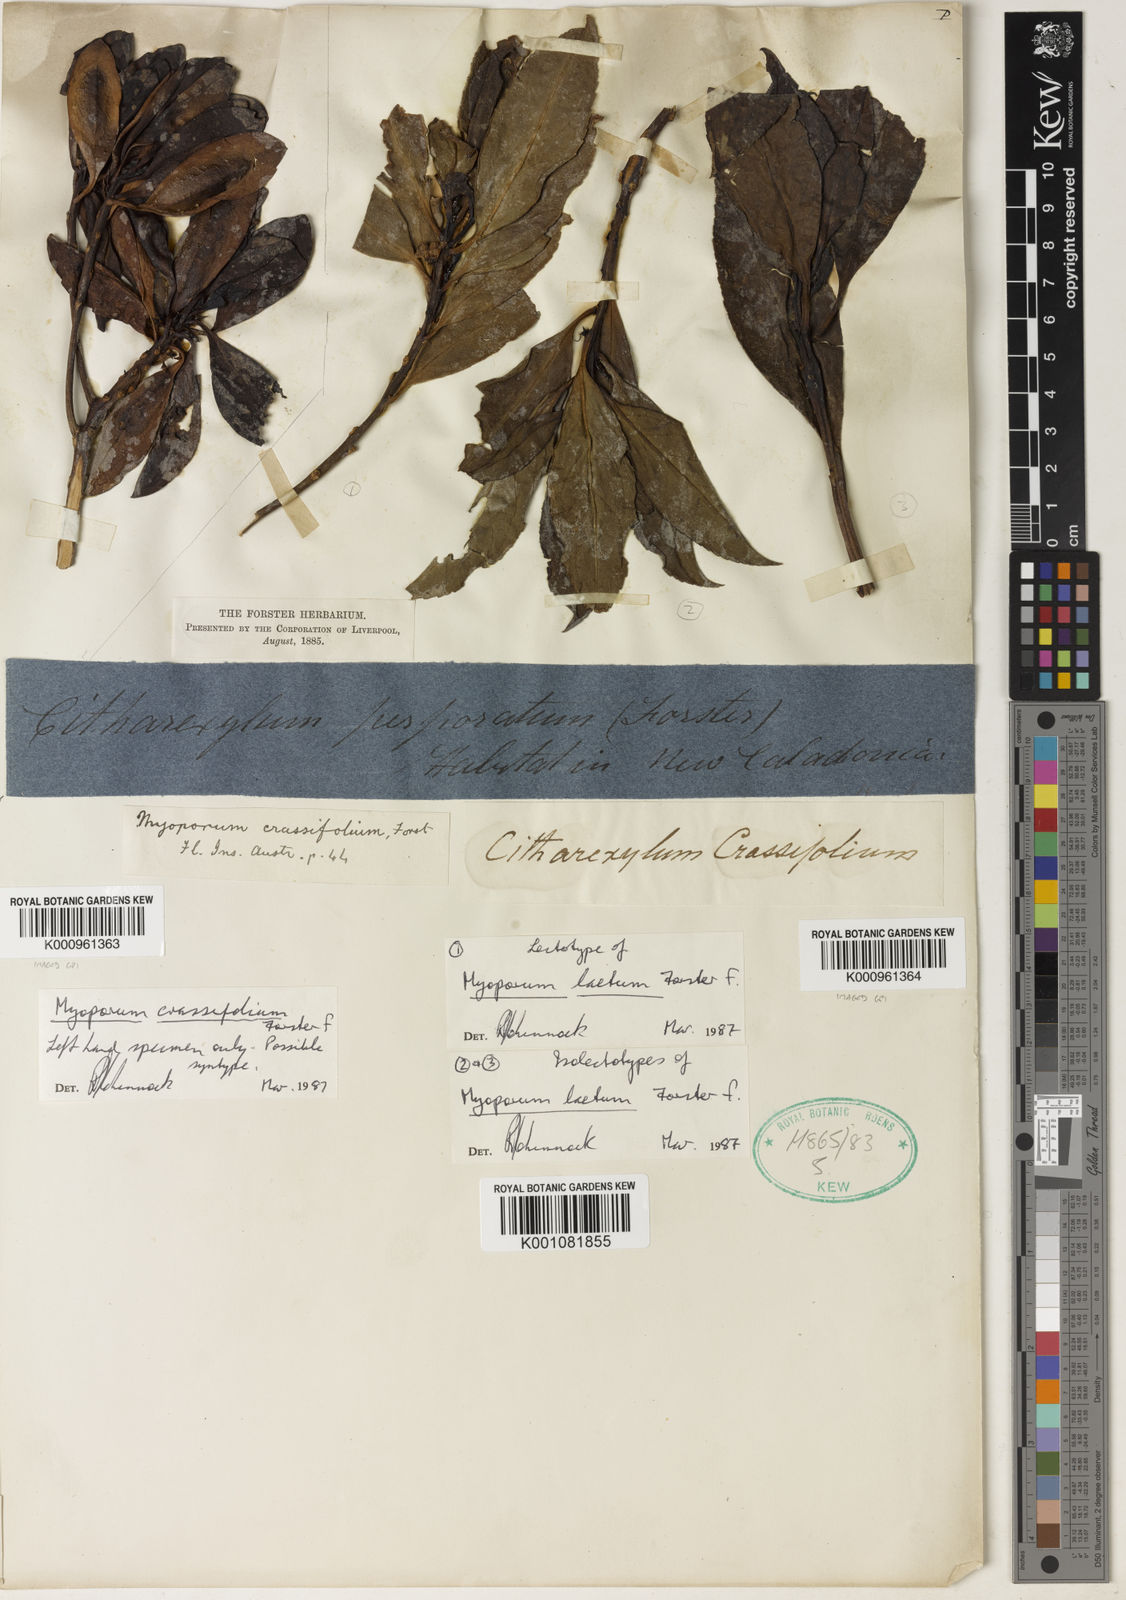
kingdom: Plantae
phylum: Tracheophyta
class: Magnoliopsida
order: Lamiales
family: Scrophulariaceae
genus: Myoporum
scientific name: Myoporum laetum
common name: Ngaio tree
